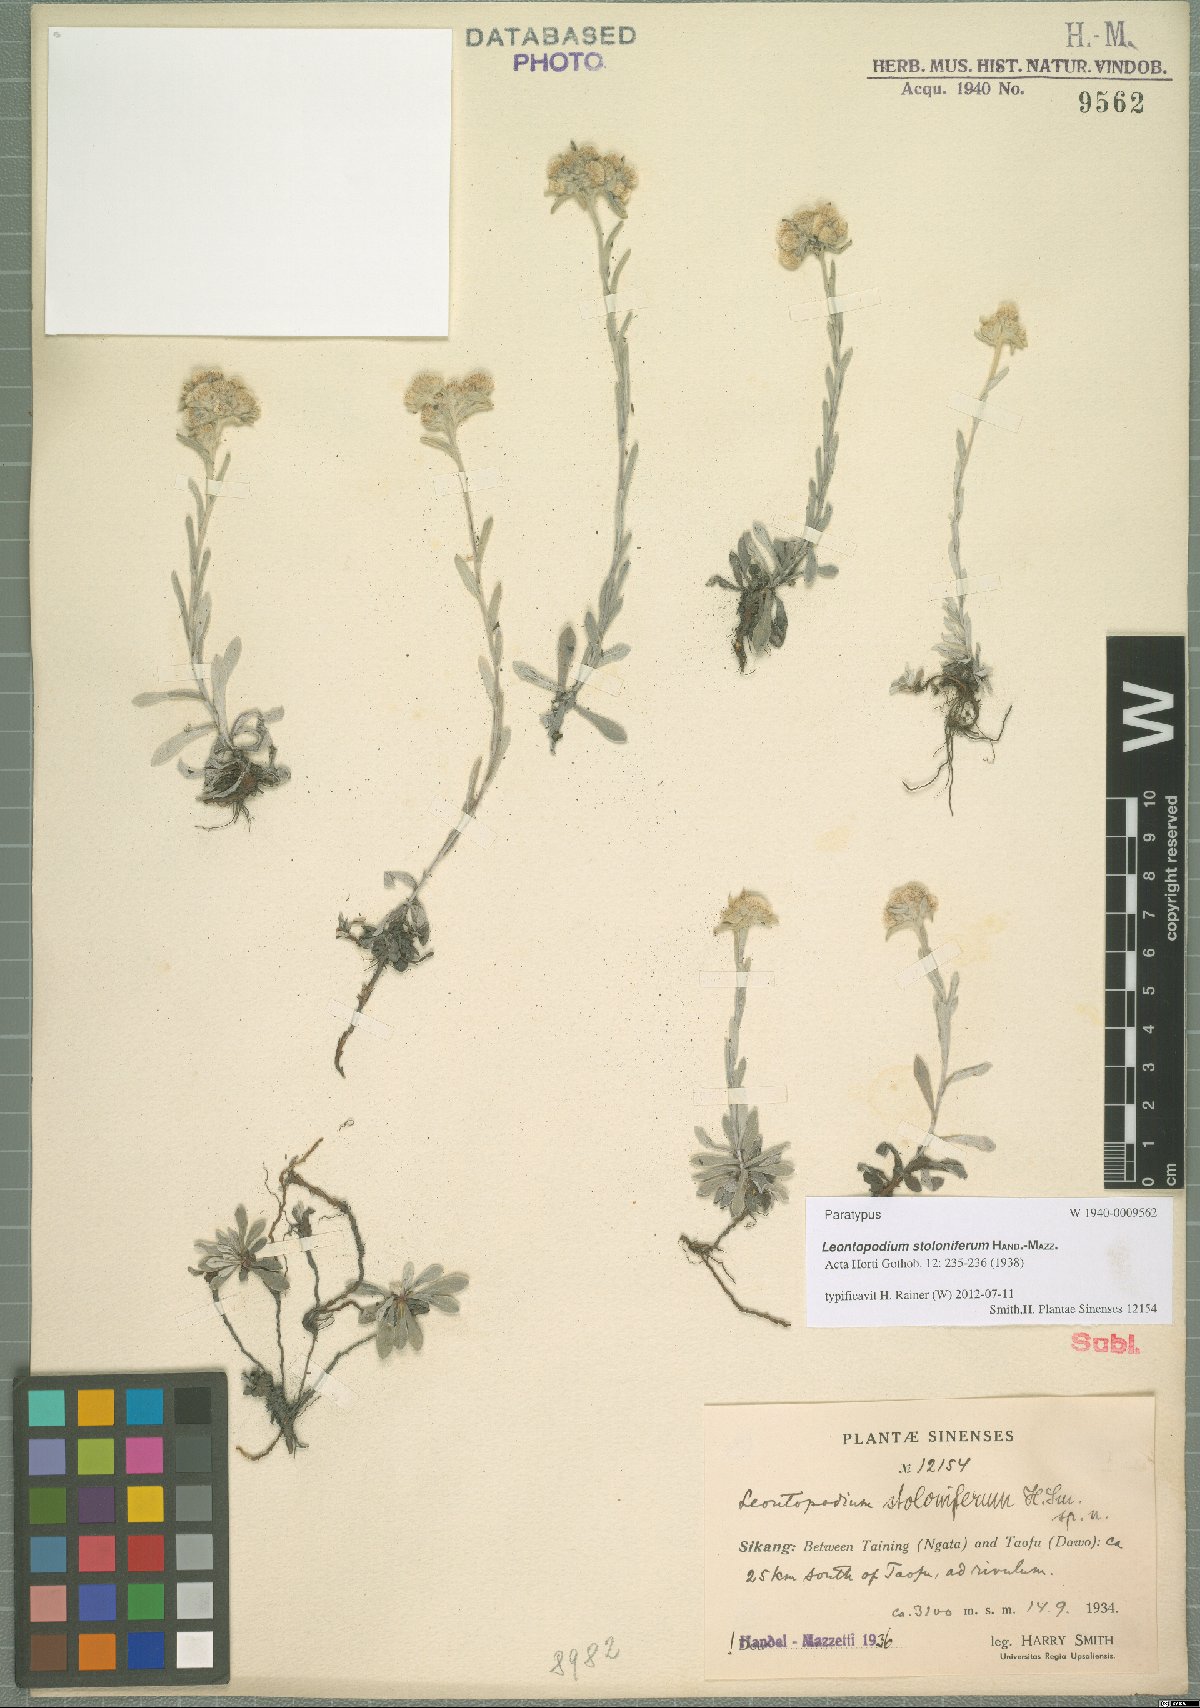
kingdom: Plantae
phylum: Tracheophyta
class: Magnoliopsida
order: Asterales
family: Asteraceae
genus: Leontopodium
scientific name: Leontopodium stoloniferum
